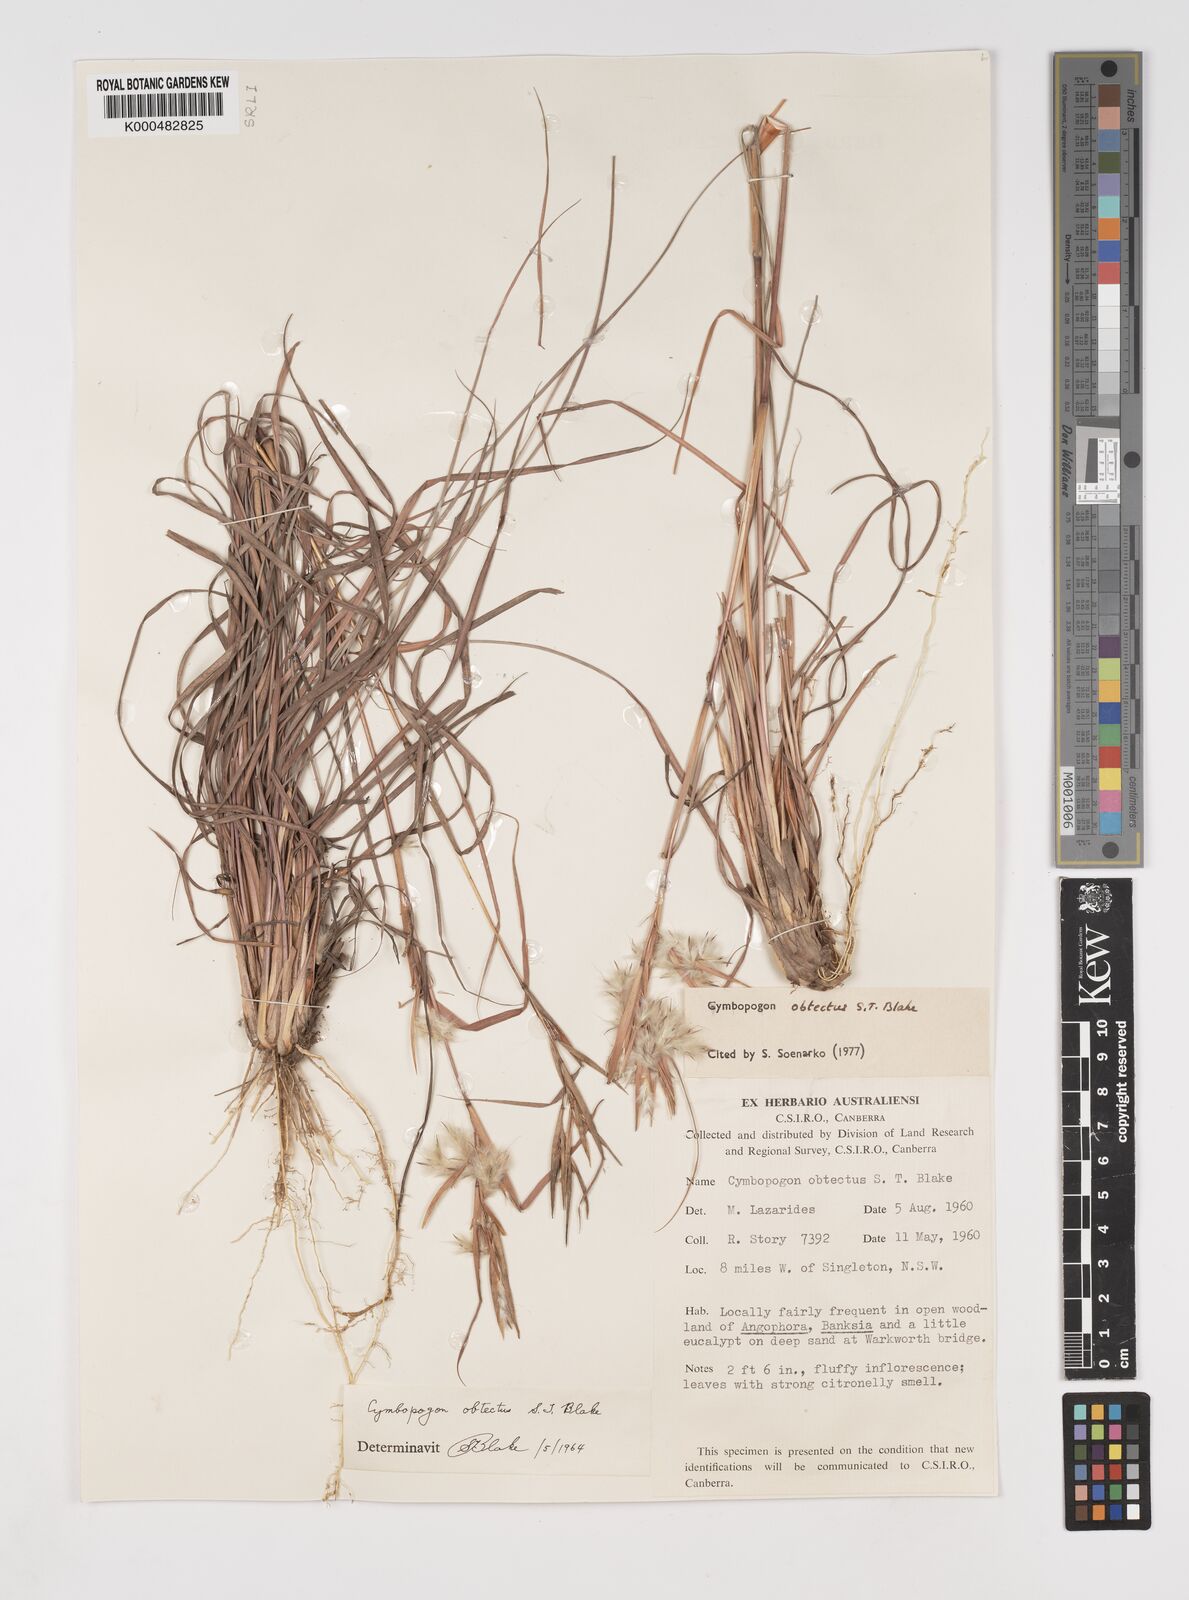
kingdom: Plantae
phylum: Tracheophyta
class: Liliopsida
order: Poales
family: Poaceae
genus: Cymbopogon
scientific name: Cymbopogon obtectus
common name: Silky heads
